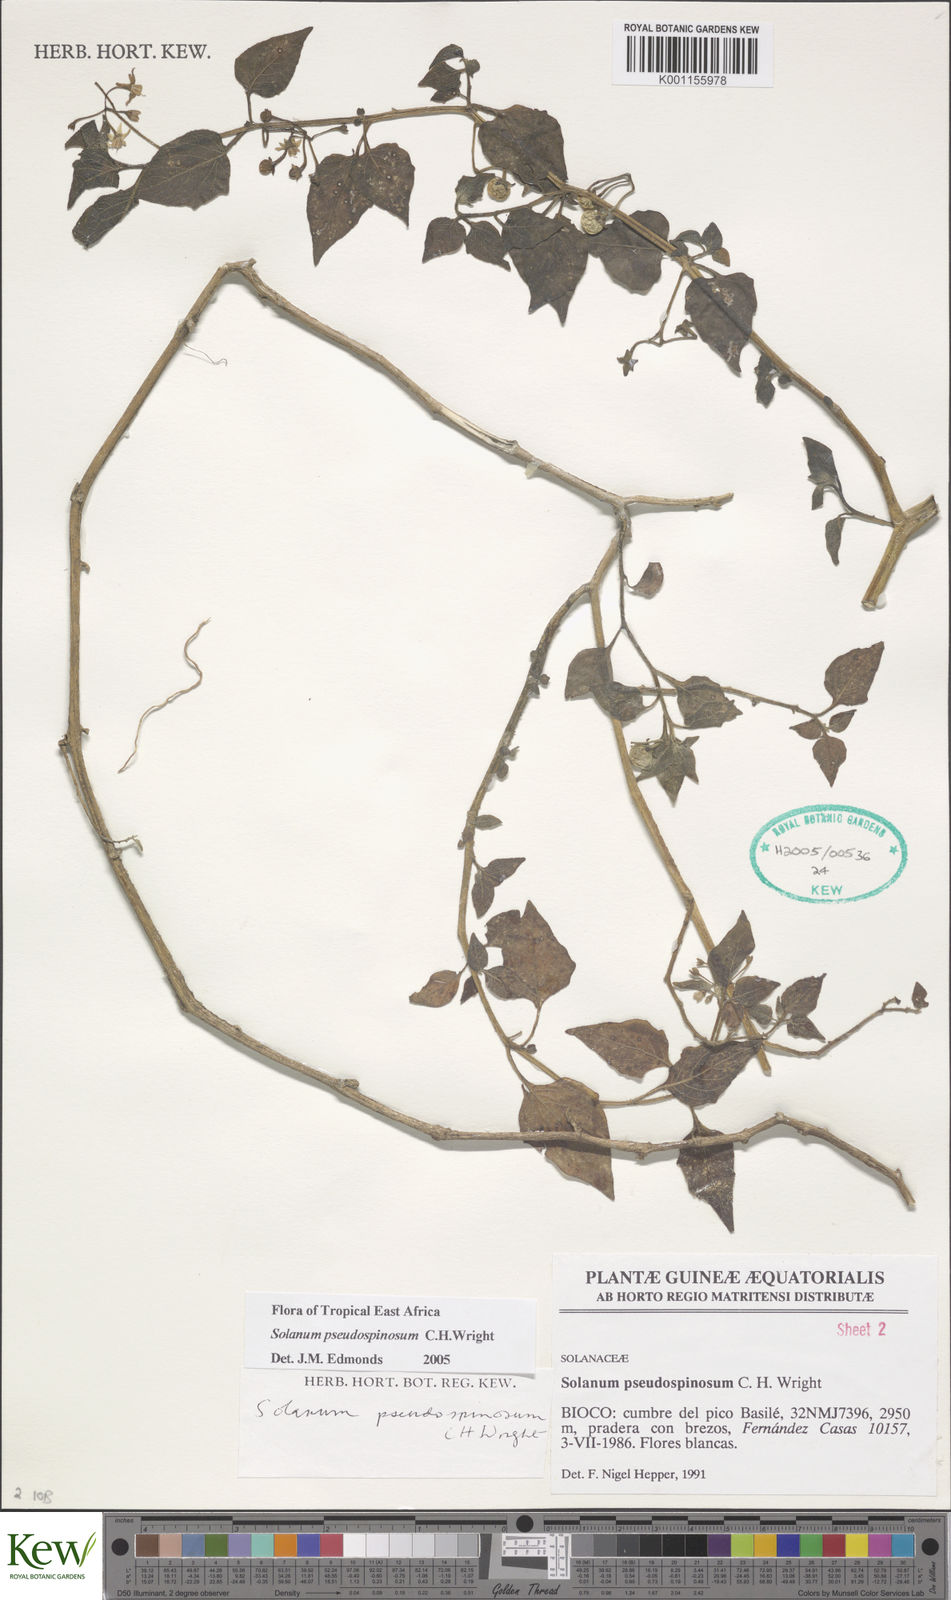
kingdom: Plantae
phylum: Tracheophyta
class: Magnoliopsida
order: Solanales
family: Solanaceae
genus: Solanum
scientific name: Solanum pseudospinosum
